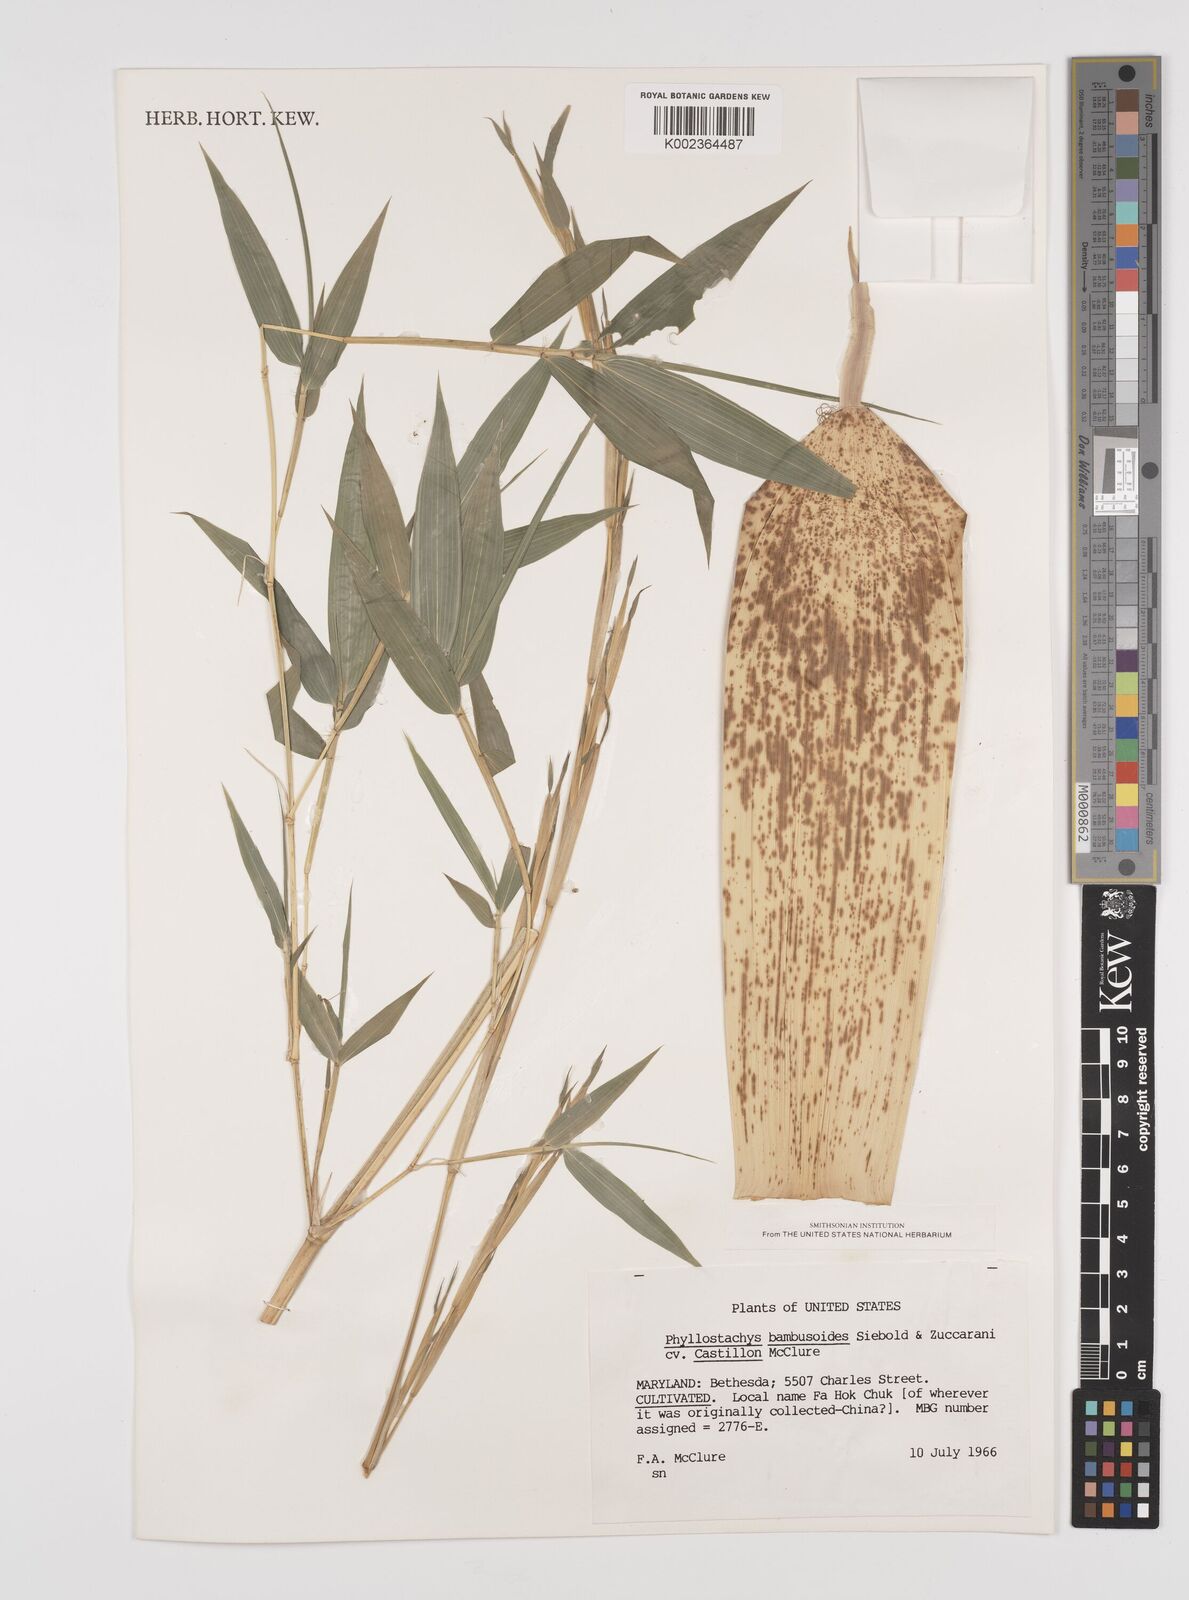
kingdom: Plantae
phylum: Tracheophyta
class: Liliopsida
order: Poales
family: Poaceae
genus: Phyllostachys
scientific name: Phyllostachys reticulata
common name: Bamboo
